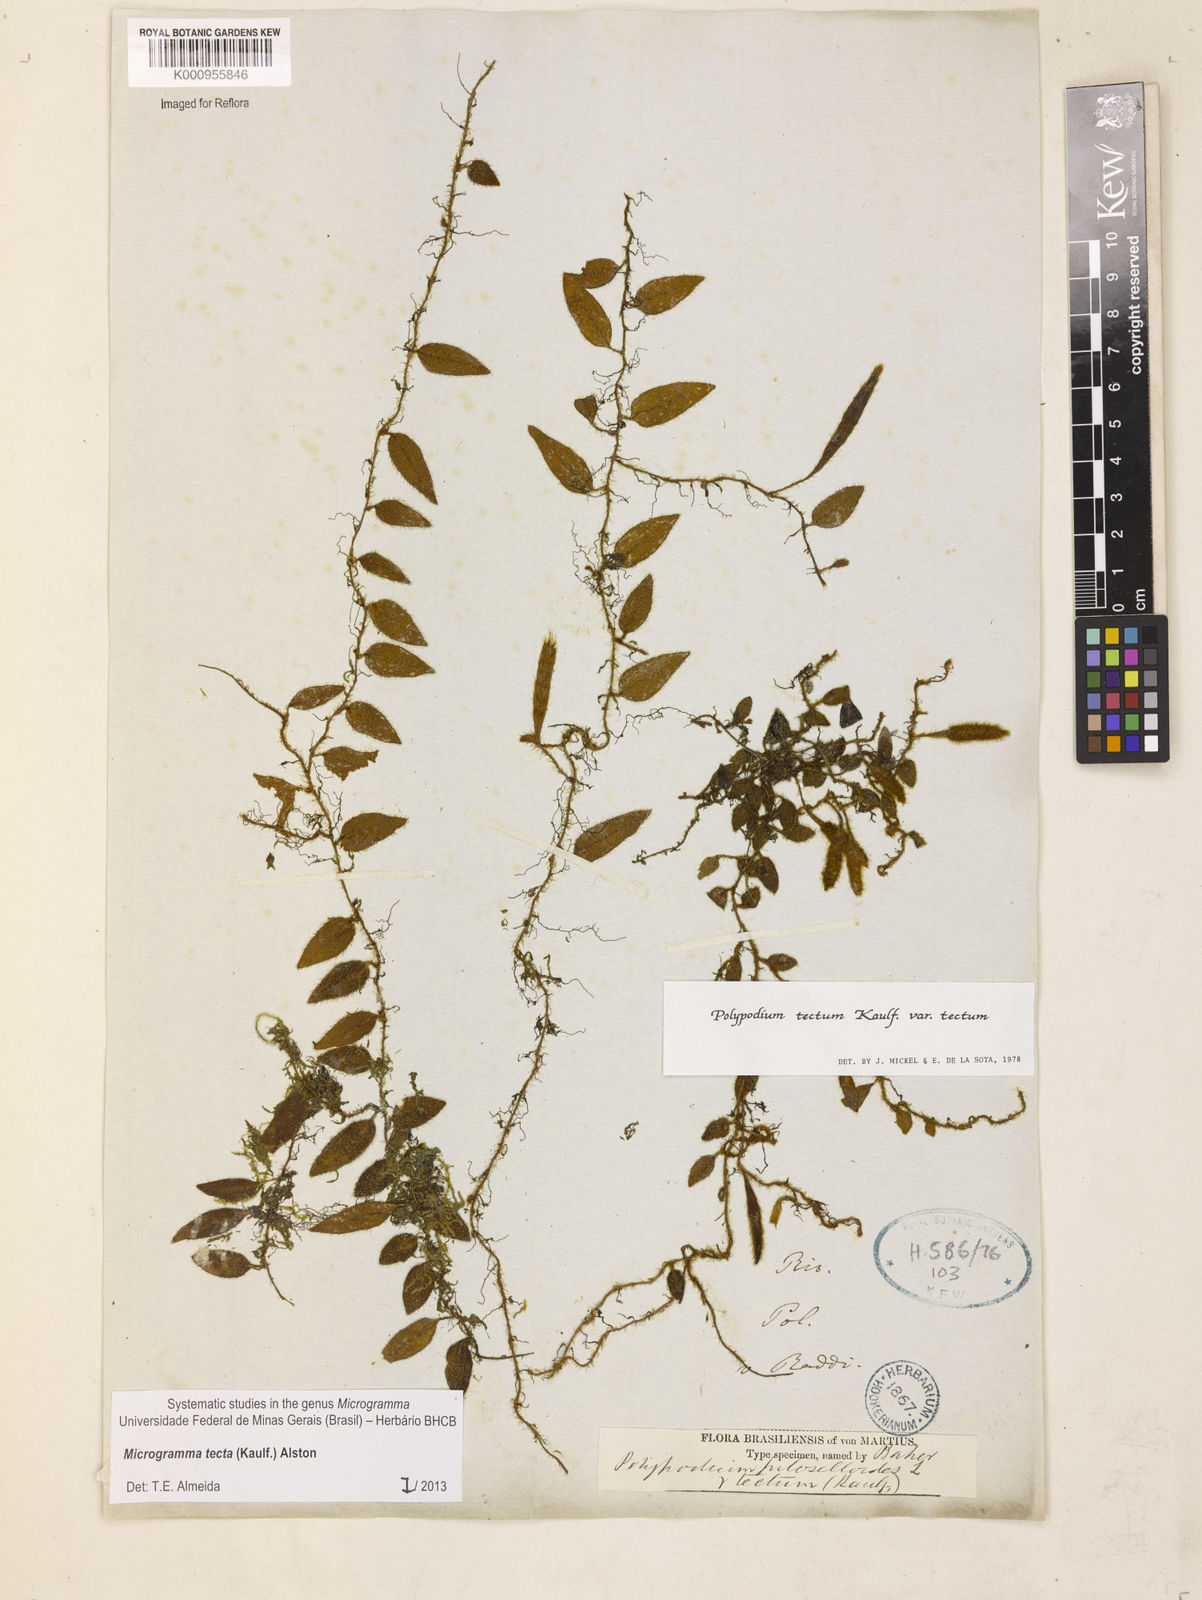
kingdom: Plantae
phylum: Tracheophyta
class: Polypodiopsida
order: Polypodiales
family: Polypodiaceae
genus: Microgramma
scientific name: Microgramma tecta
